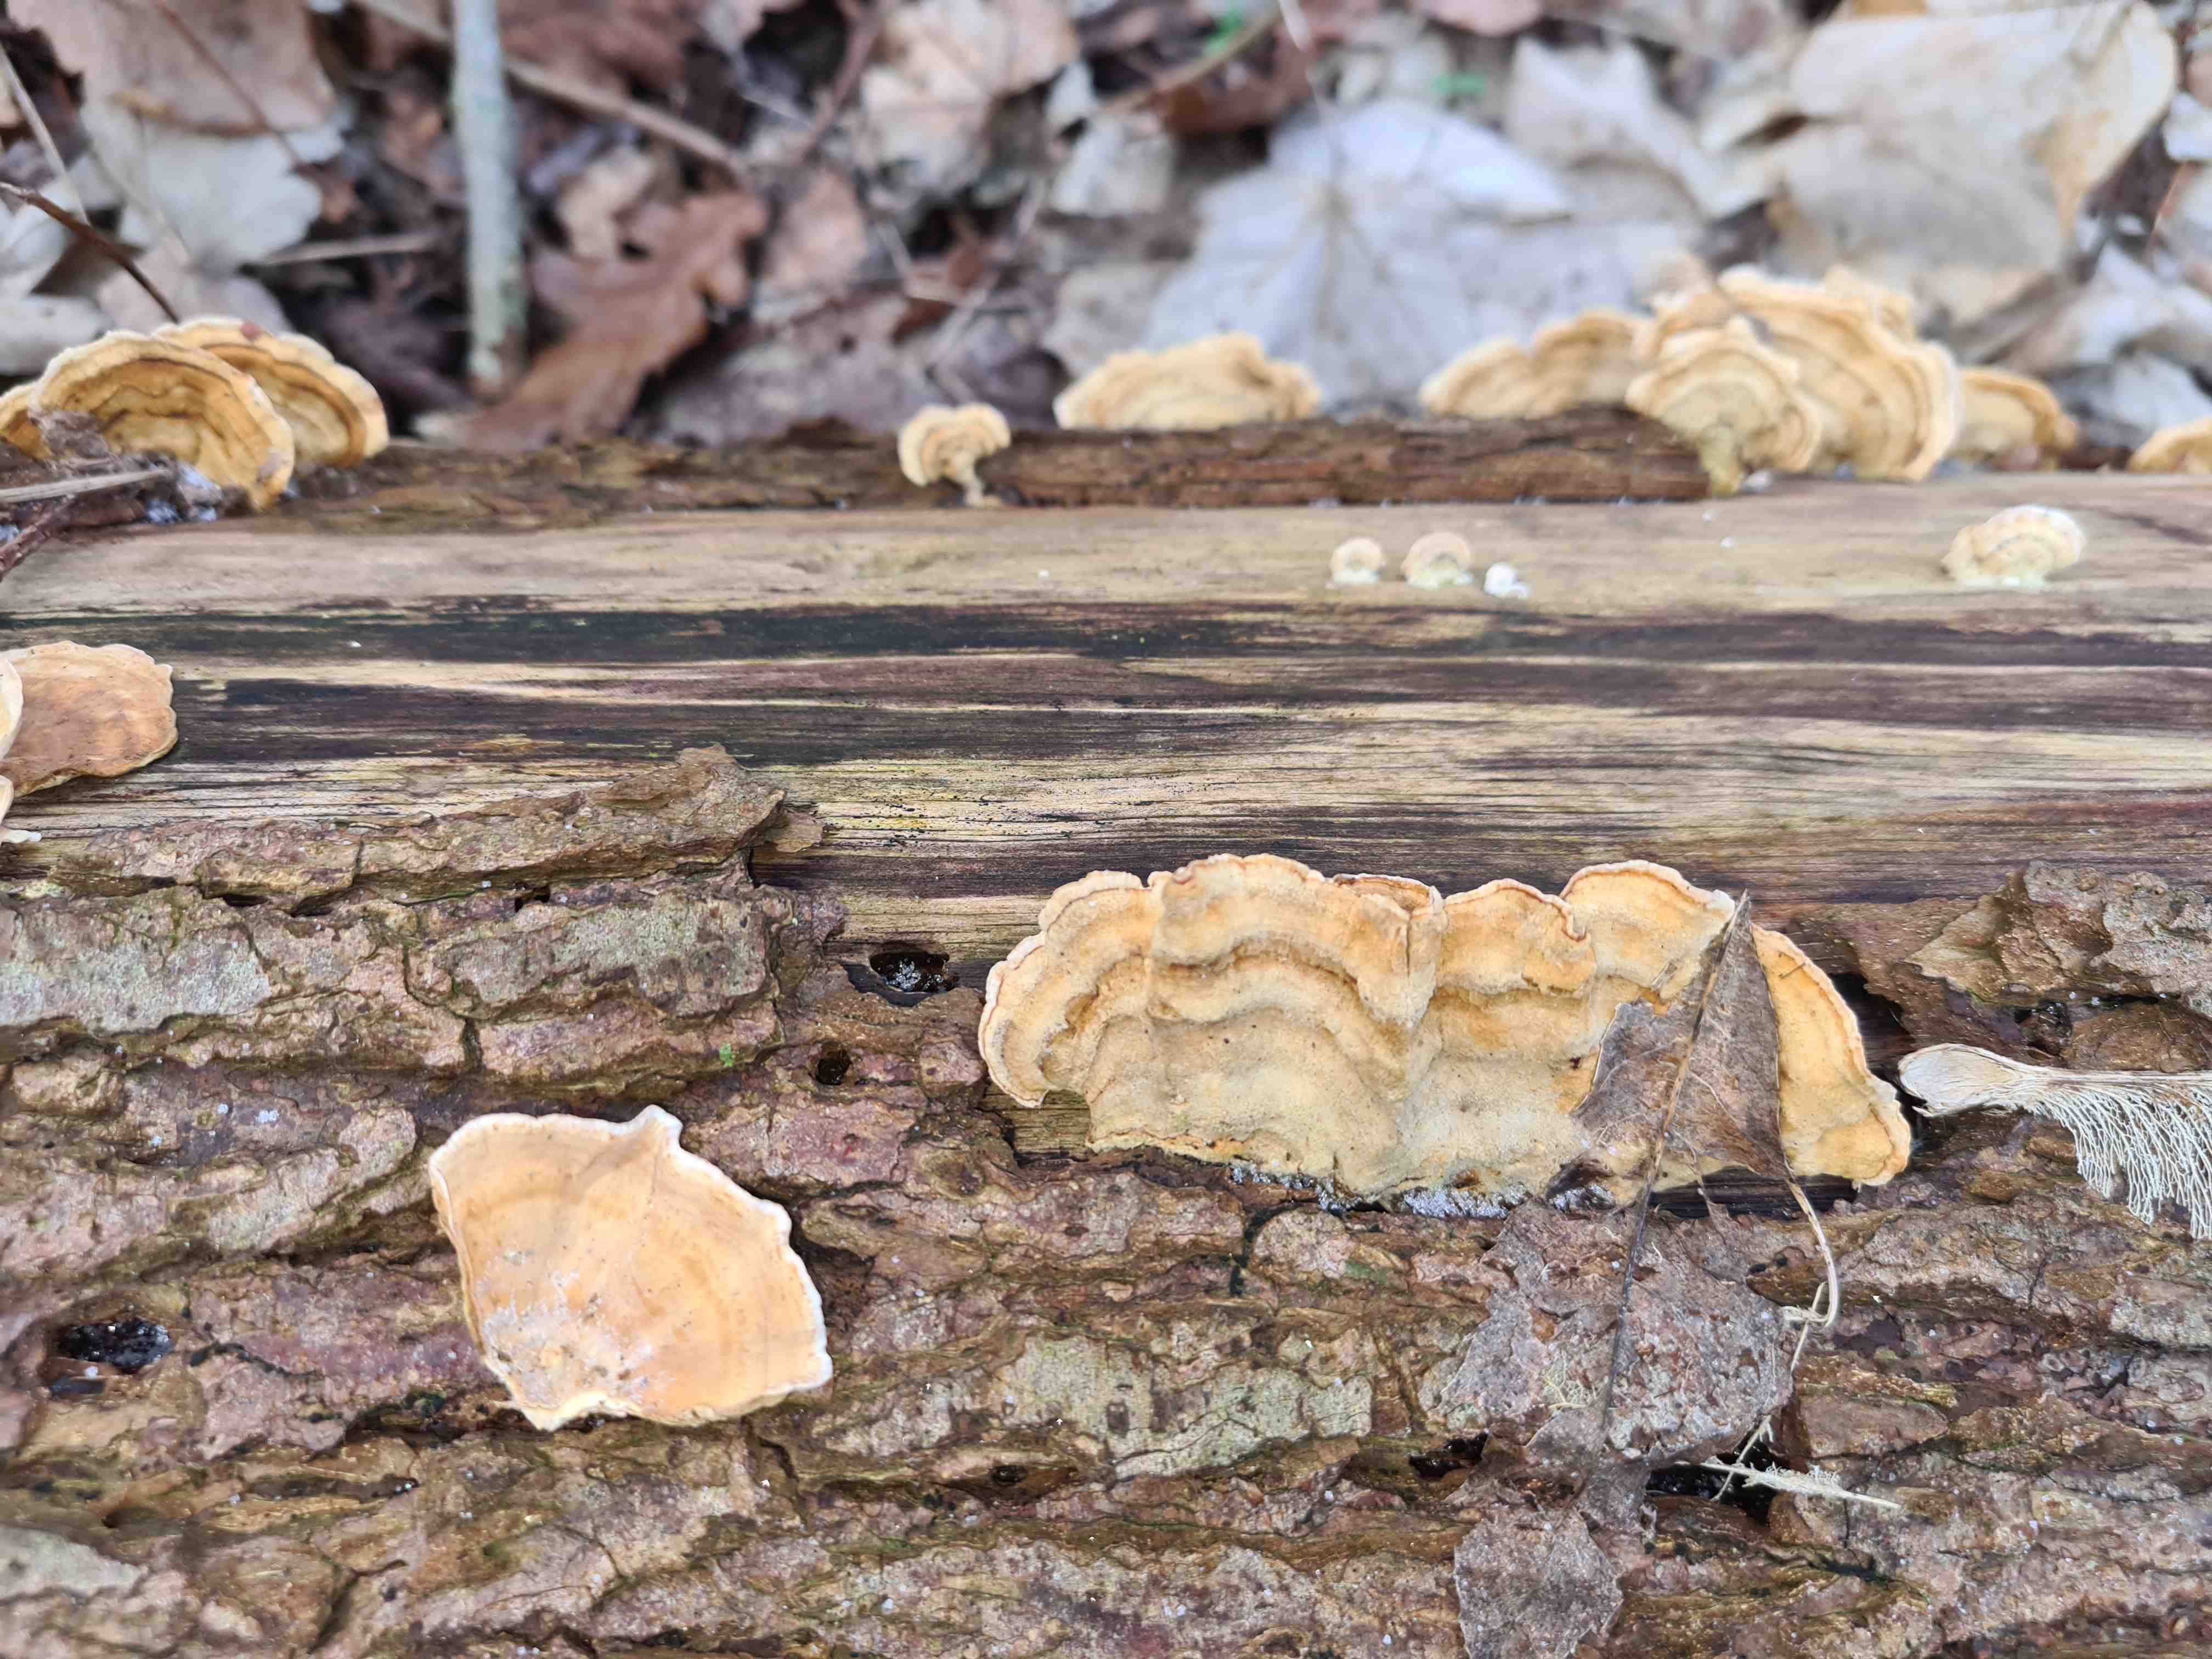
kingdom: Fungi
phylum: Basidiomycota
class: Agaricomycetes
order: Russulales
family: Stereaceae
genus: Stereum
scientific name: Stereum subtomentosum
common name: smuk lædersvamp
